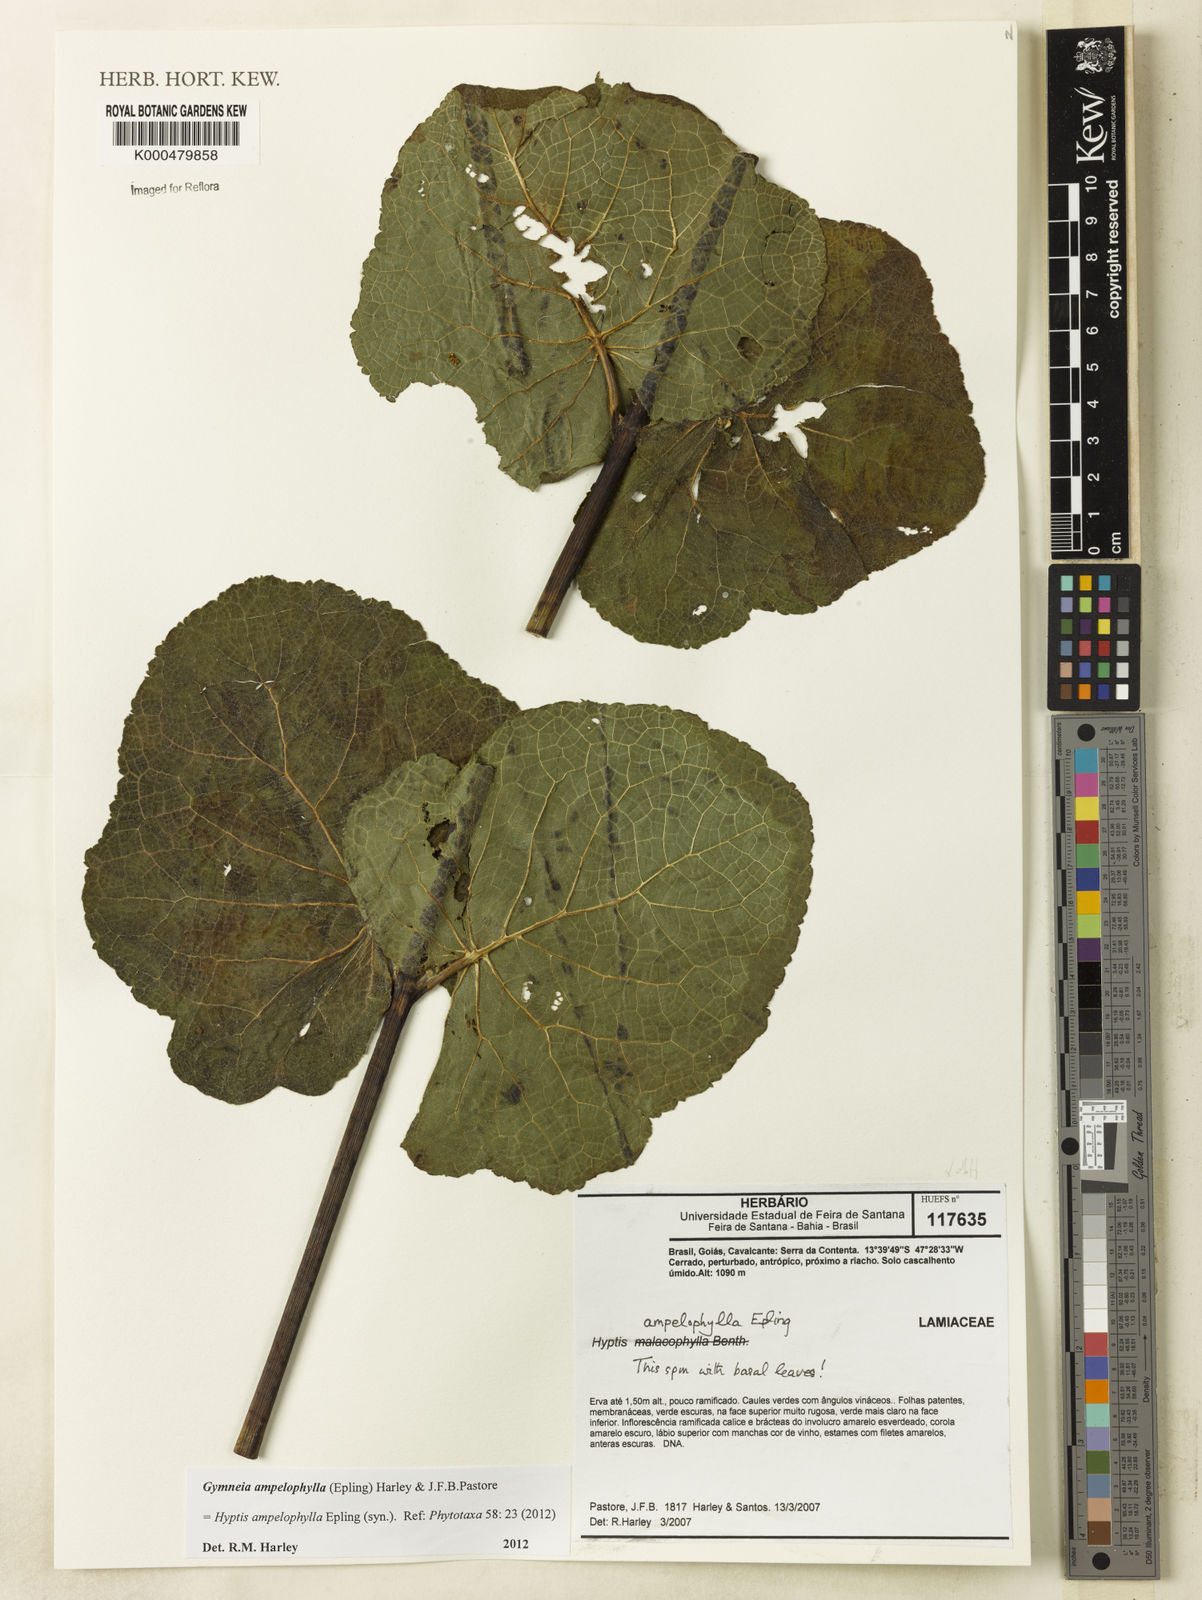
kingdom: Plantae
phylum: Tracheophyta
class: Magnoliopsida
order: Lamiales
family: Lamiaceae
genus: Gymneia
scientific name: Gymneia ampelophylla
